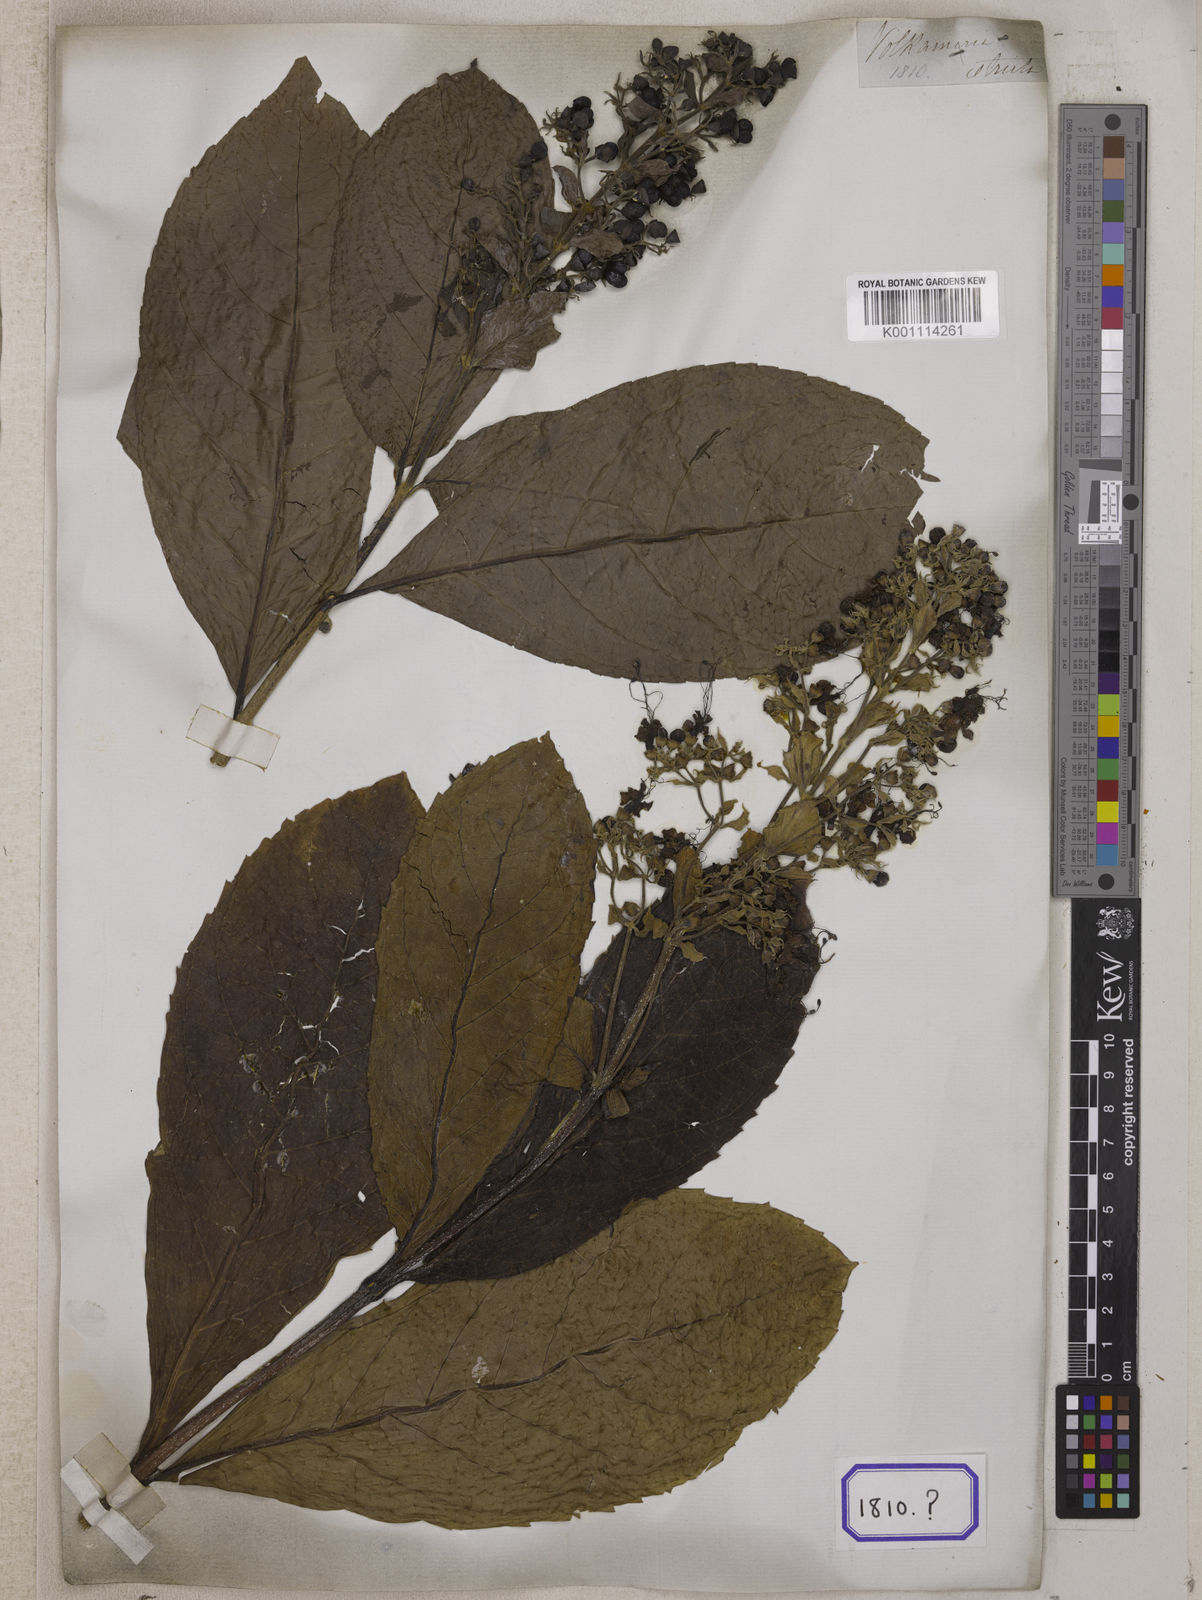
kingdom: Plantae
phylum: Tracheophyta
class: Magnoliopsida
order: Lamiales
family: Lamiaceae
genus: Clerodendrum
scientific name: Clerodendrum
